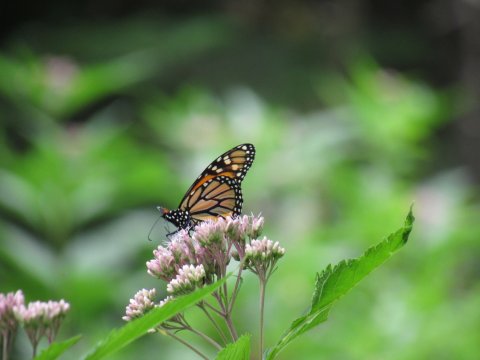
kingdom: Animalia
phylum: Arthropoda
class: Insecta
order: Lepidoptera
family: Nymphalidae
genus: Danaus
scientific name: Danaus plexippus
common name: Monarch
